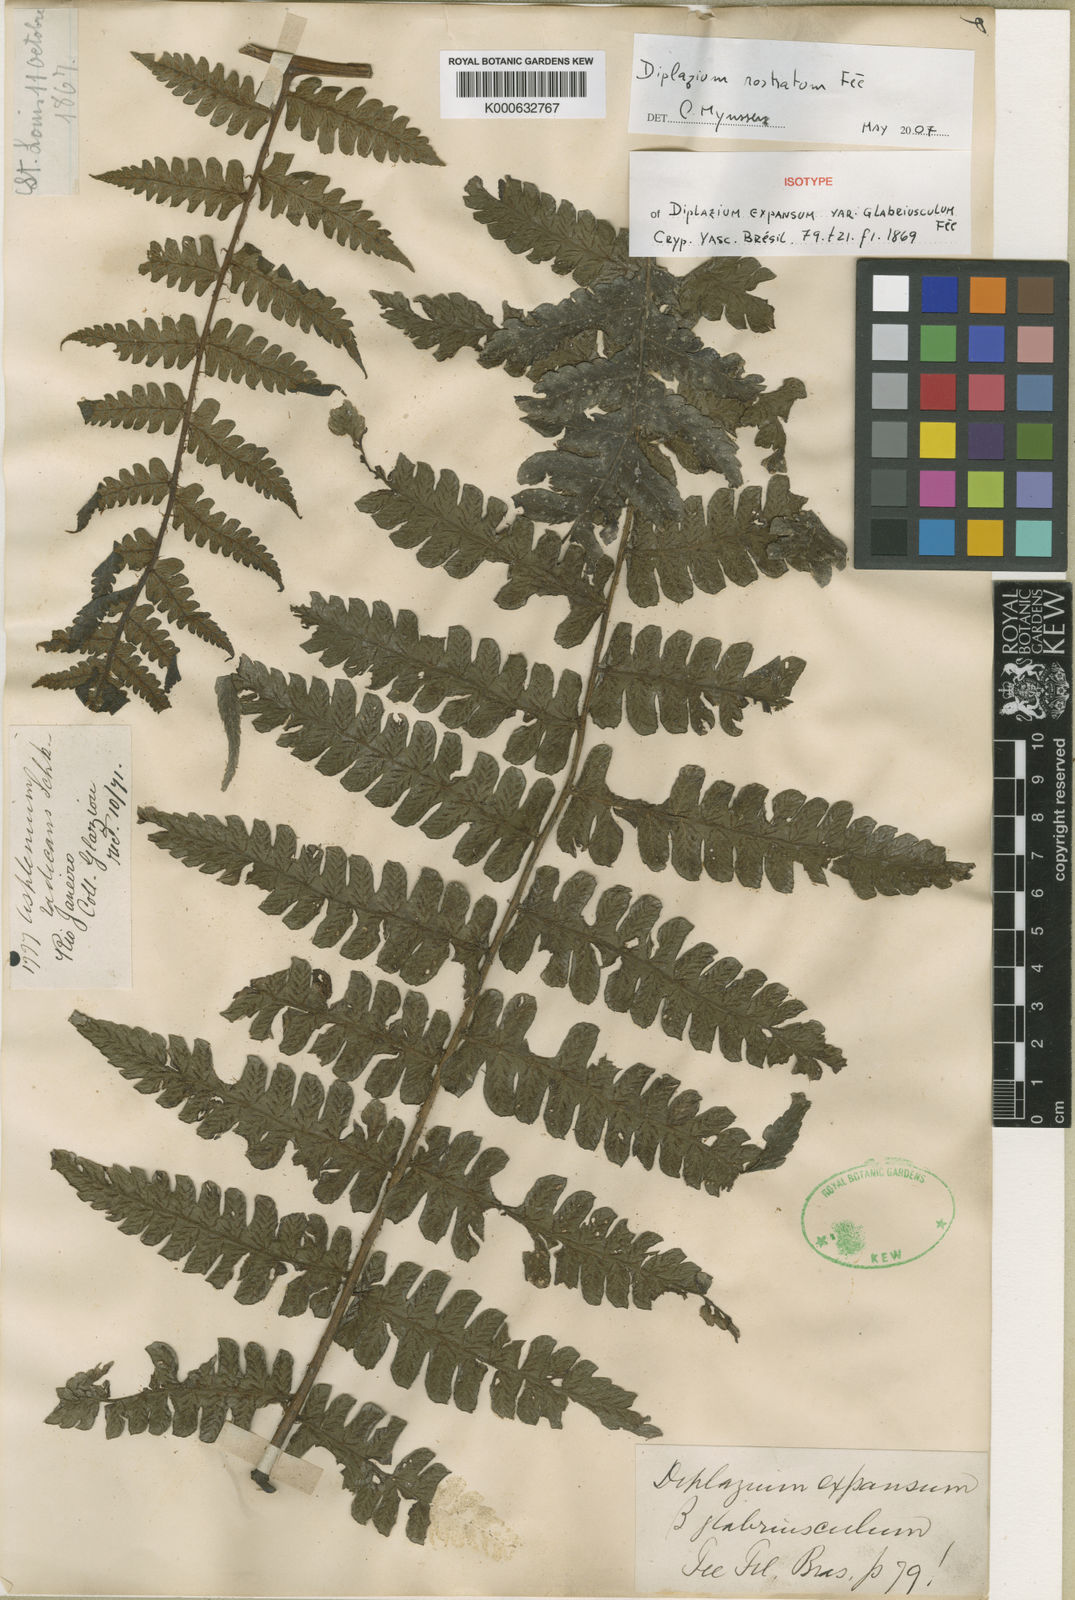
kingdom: Plantae
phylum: Tracheophyta
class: Polypodiopsida
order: Polypodiales
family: Athyriaceae
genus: Diplazium
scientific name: Diplazium
